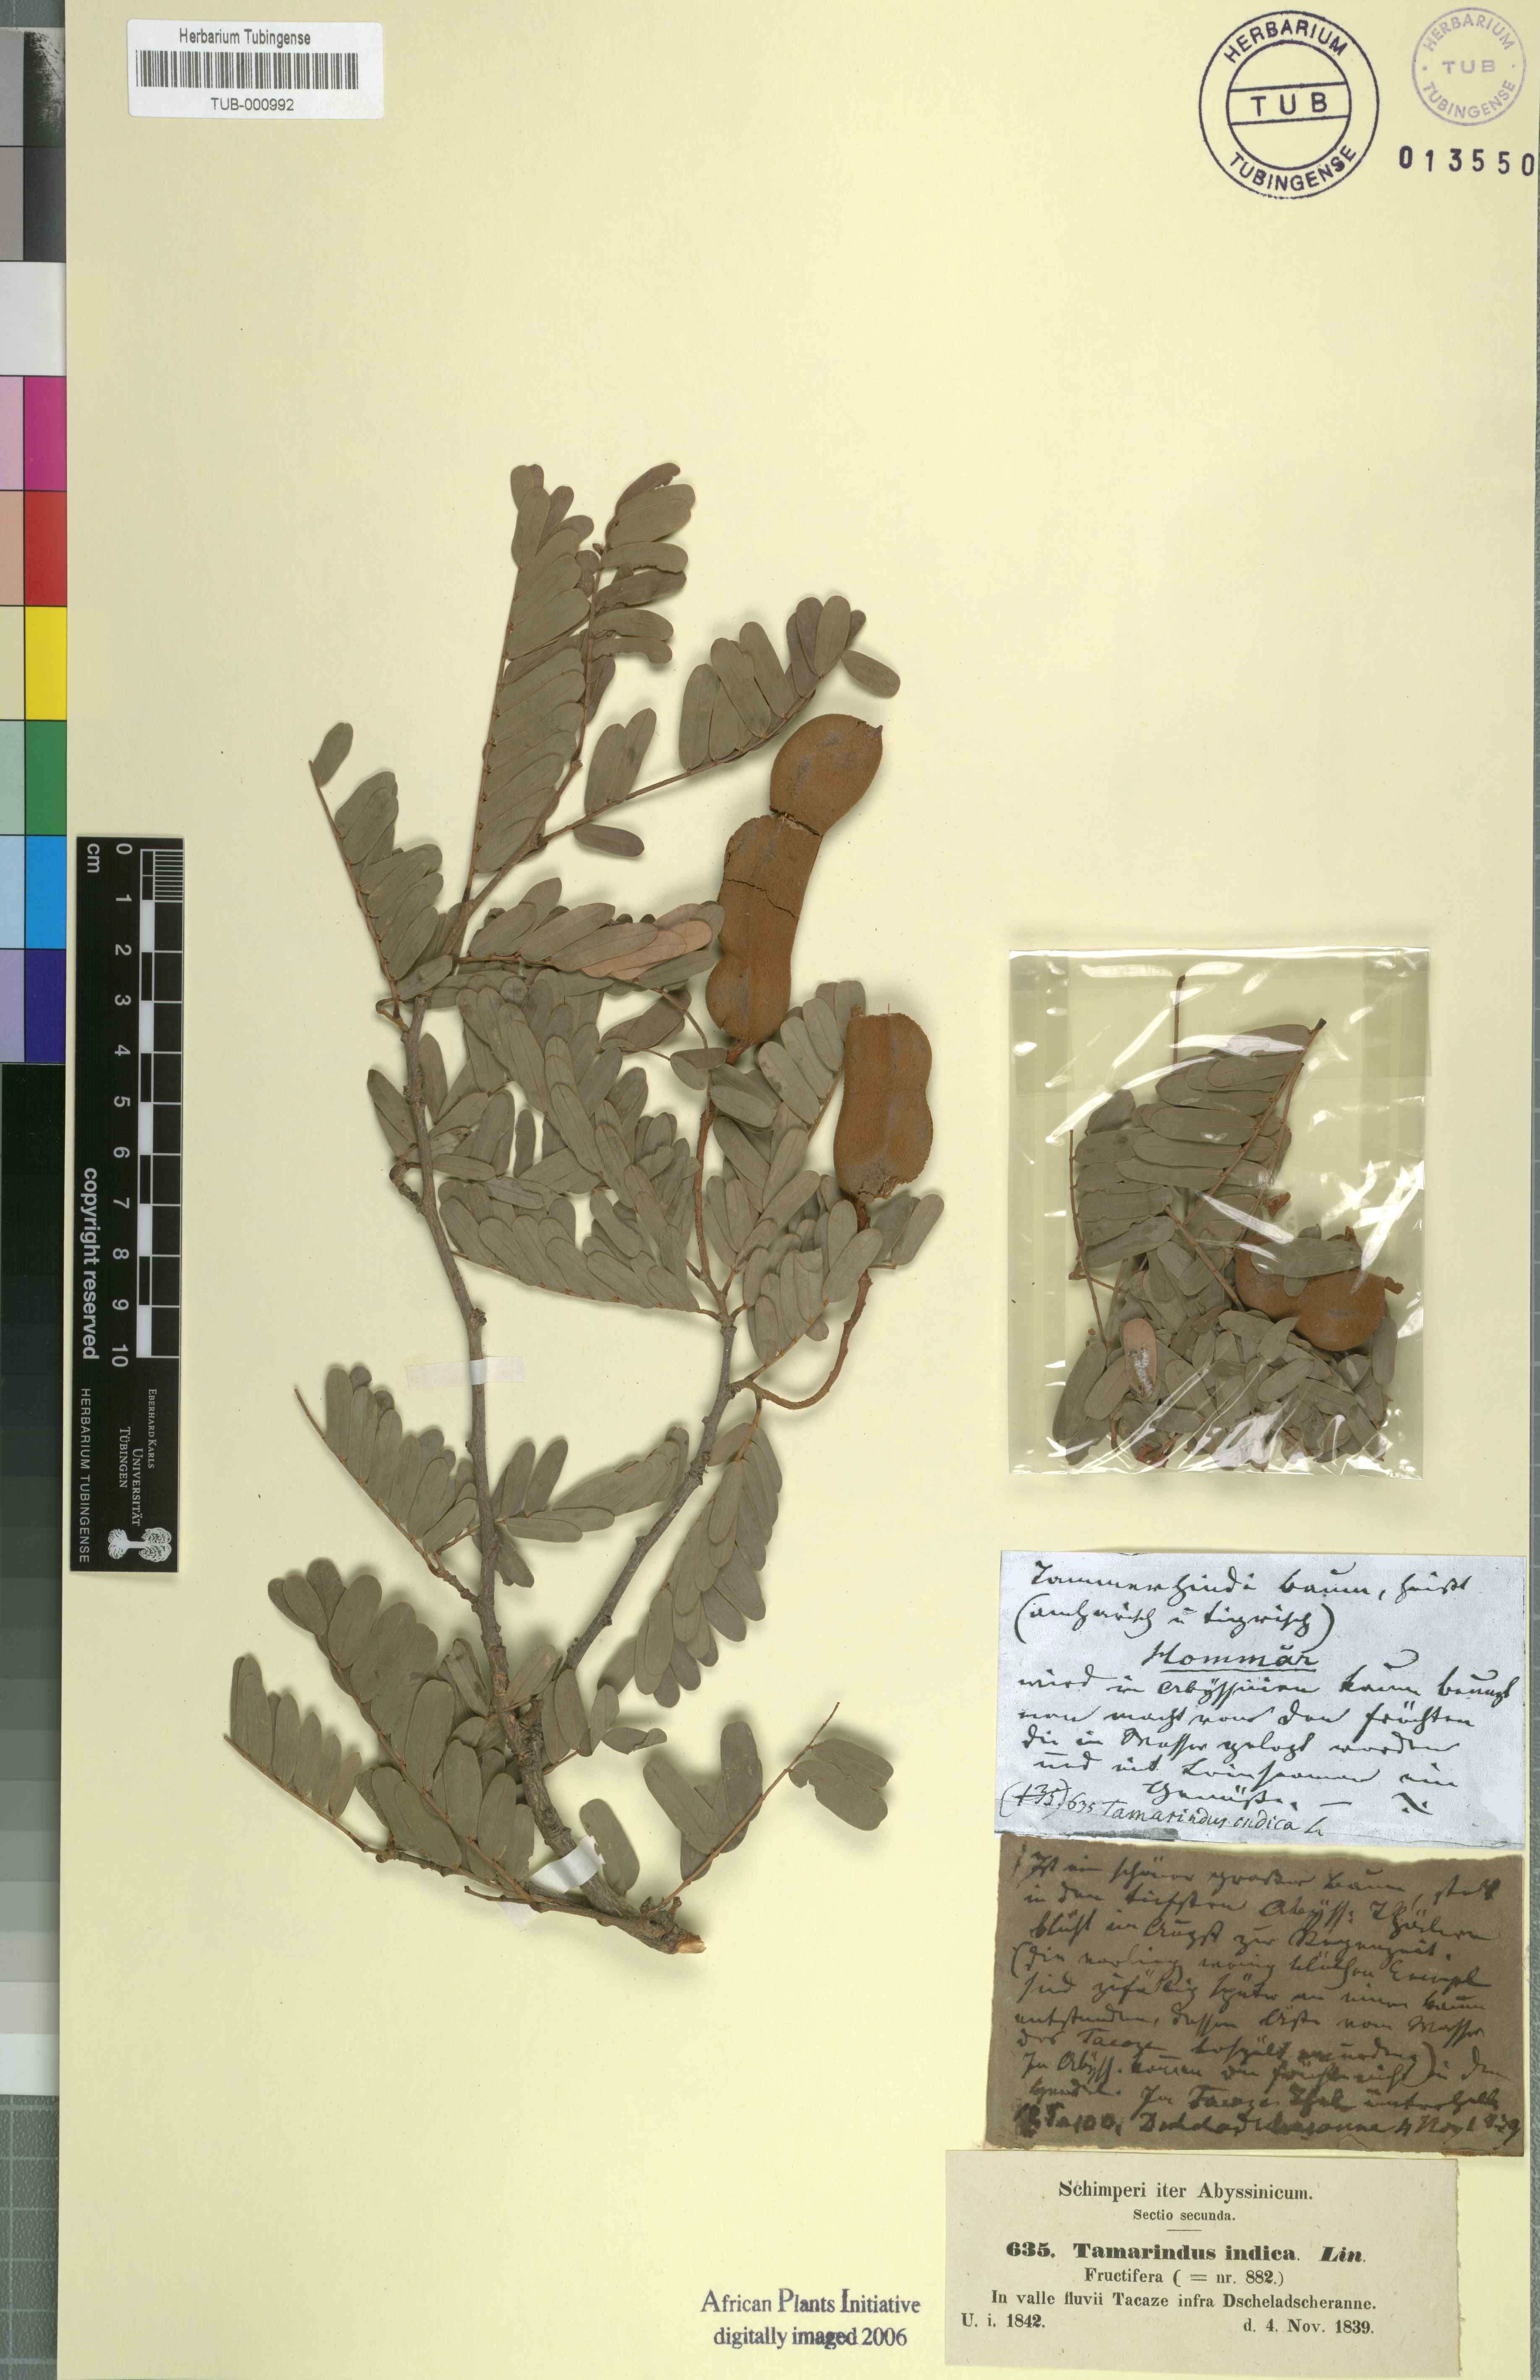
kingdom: Plantae
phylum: Tracheophyta
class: Magnoliopsida
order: Fabales
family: Fabaceae
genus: Tamarindus
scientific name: Tamarindus indica
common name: Tamarind
